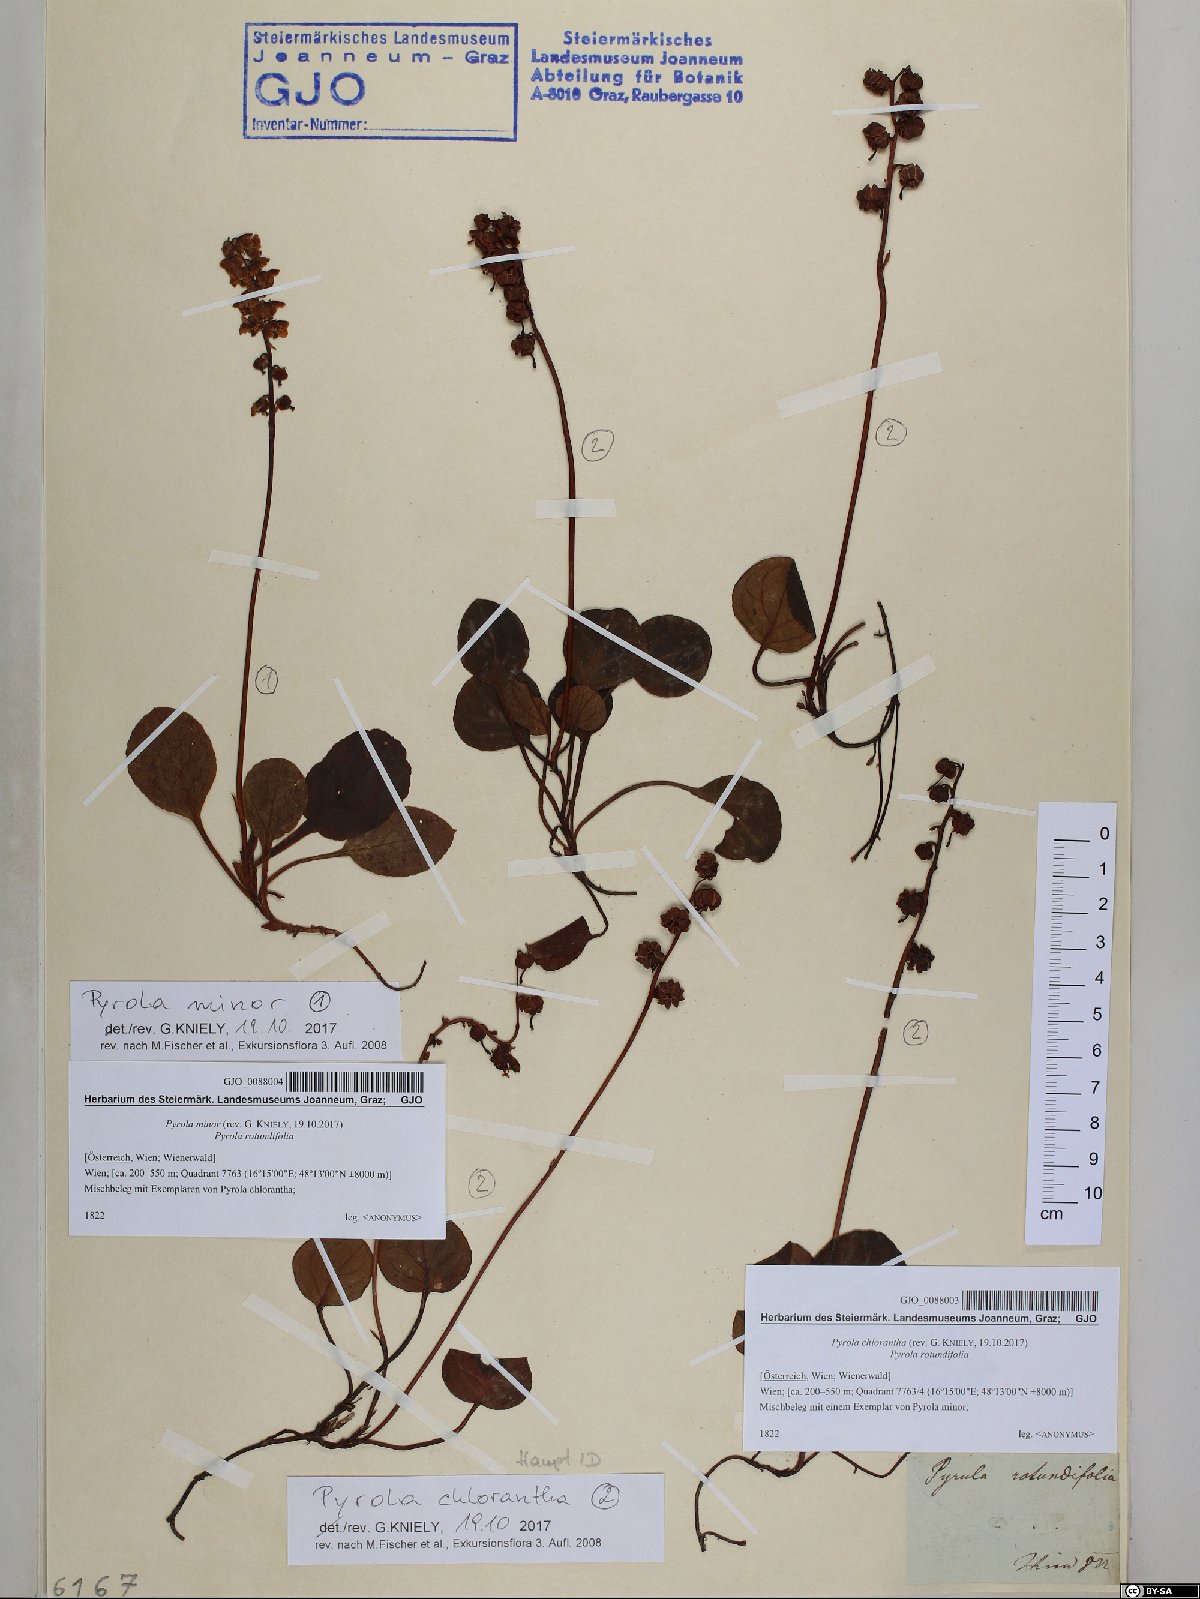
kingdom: Plantae
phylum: Tracheophyta
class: Magnoliopsida
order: Ericales
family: Ericaceae
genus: Pyrola
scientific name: Pyrola chlorantha
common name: Green wintergreen
